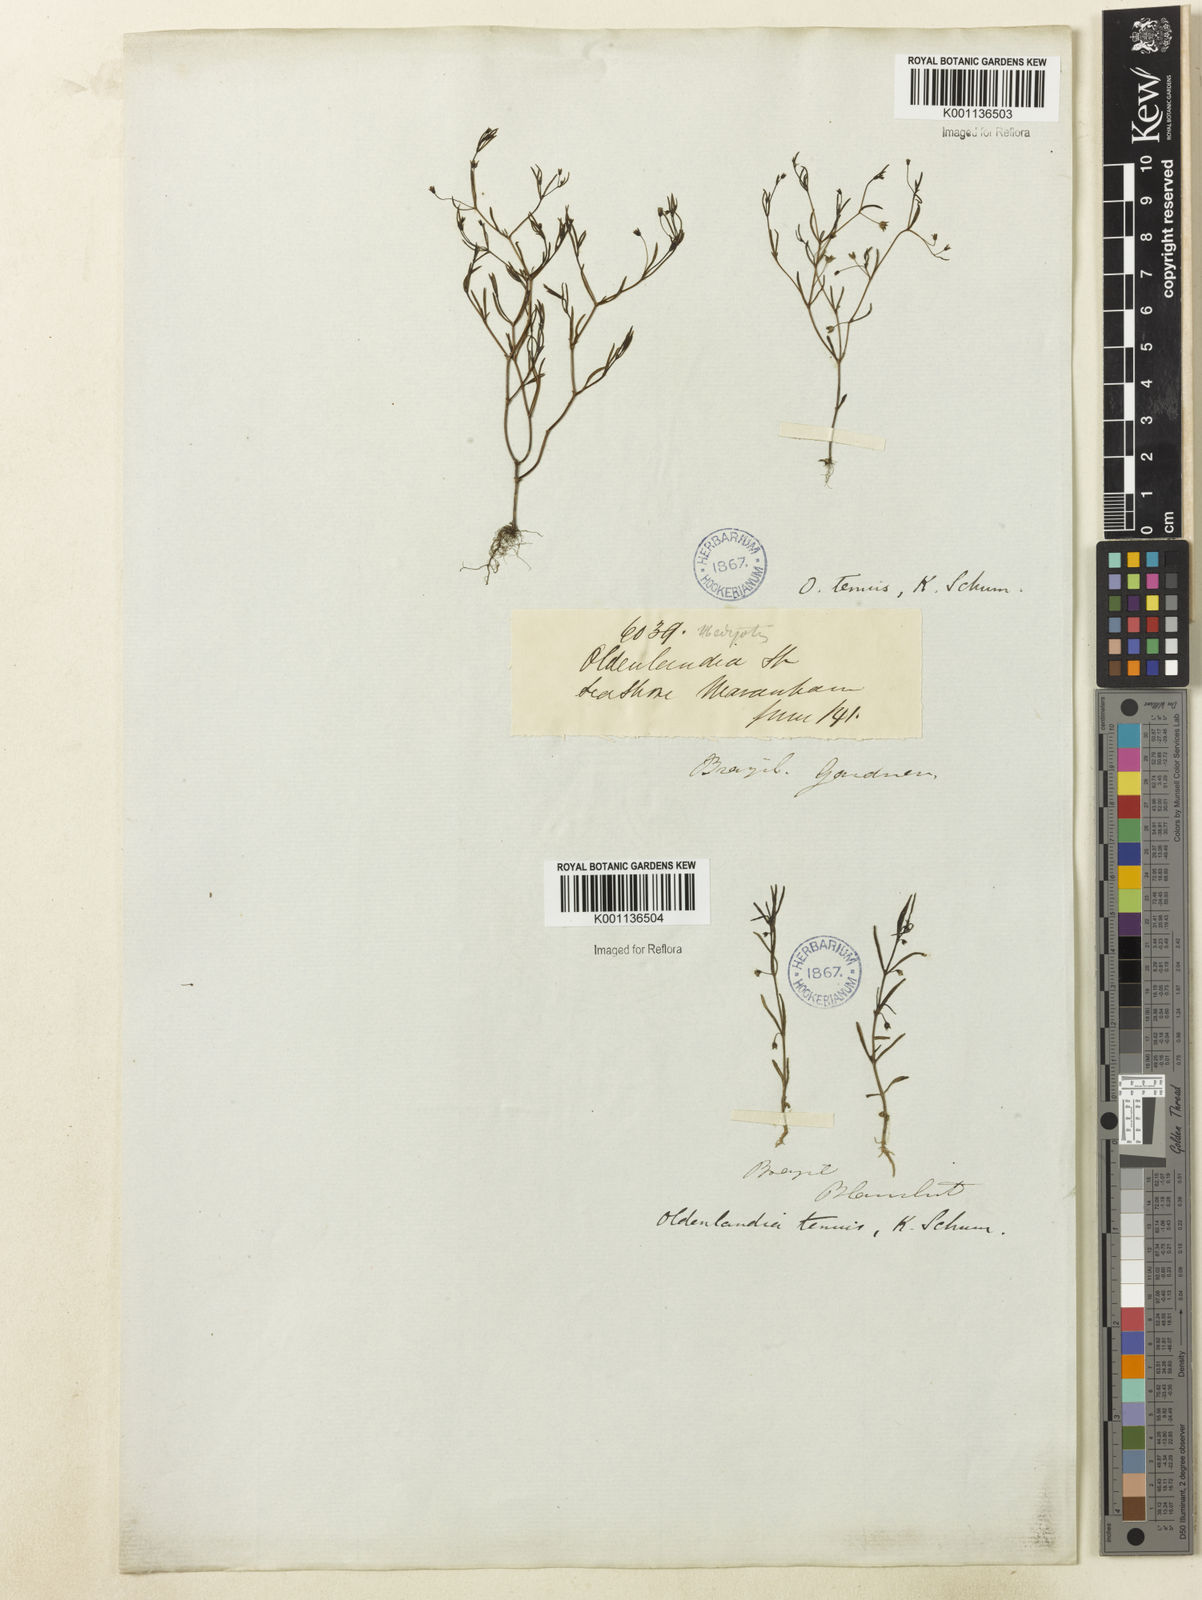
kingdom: Plantae
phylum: Tracheophyta
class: Magnoliopsida
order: Gentianales
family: Rubiaceae
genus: Oldenlandia
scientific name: Oldenlandia tenuis
